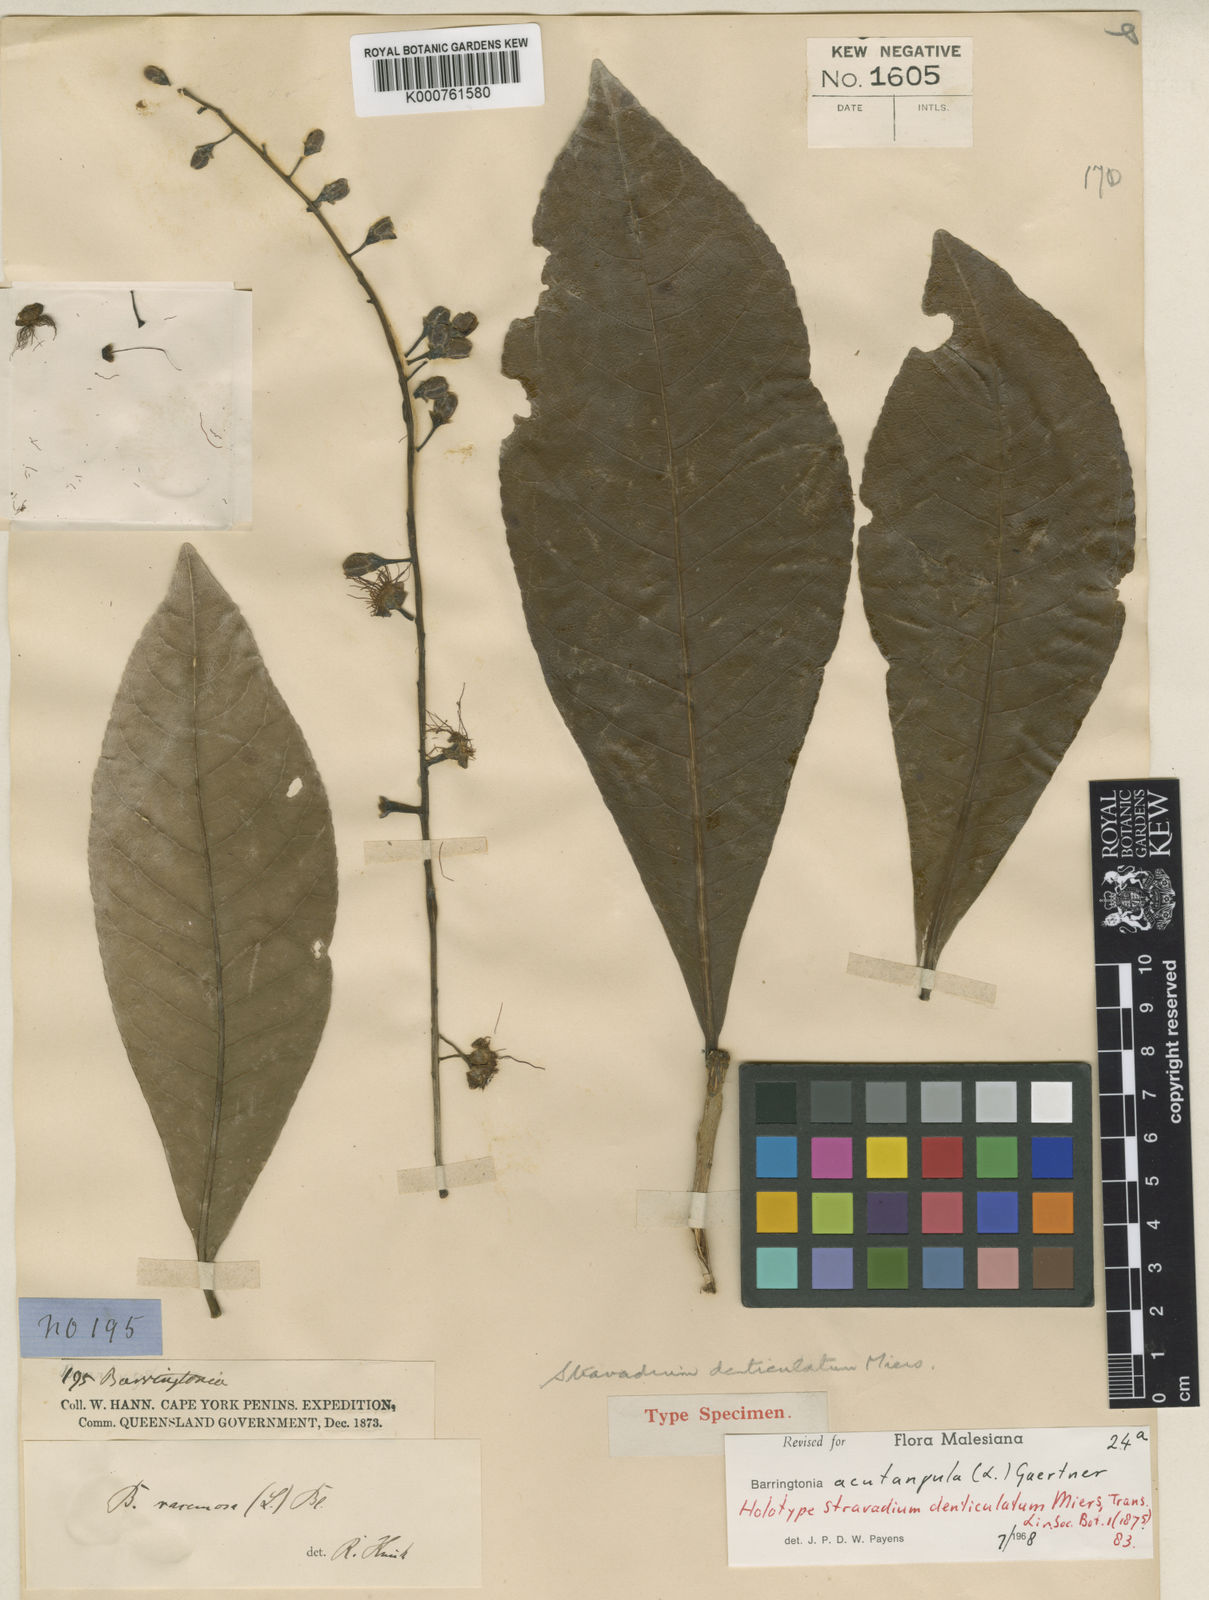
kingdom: Plantae
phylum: Tracheophyta
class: Magnoliopsida
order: Ericales
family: Lecythidaceae
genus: Barringtonia
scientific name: Barringtonia acutangula
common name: Freshwater mangrove
